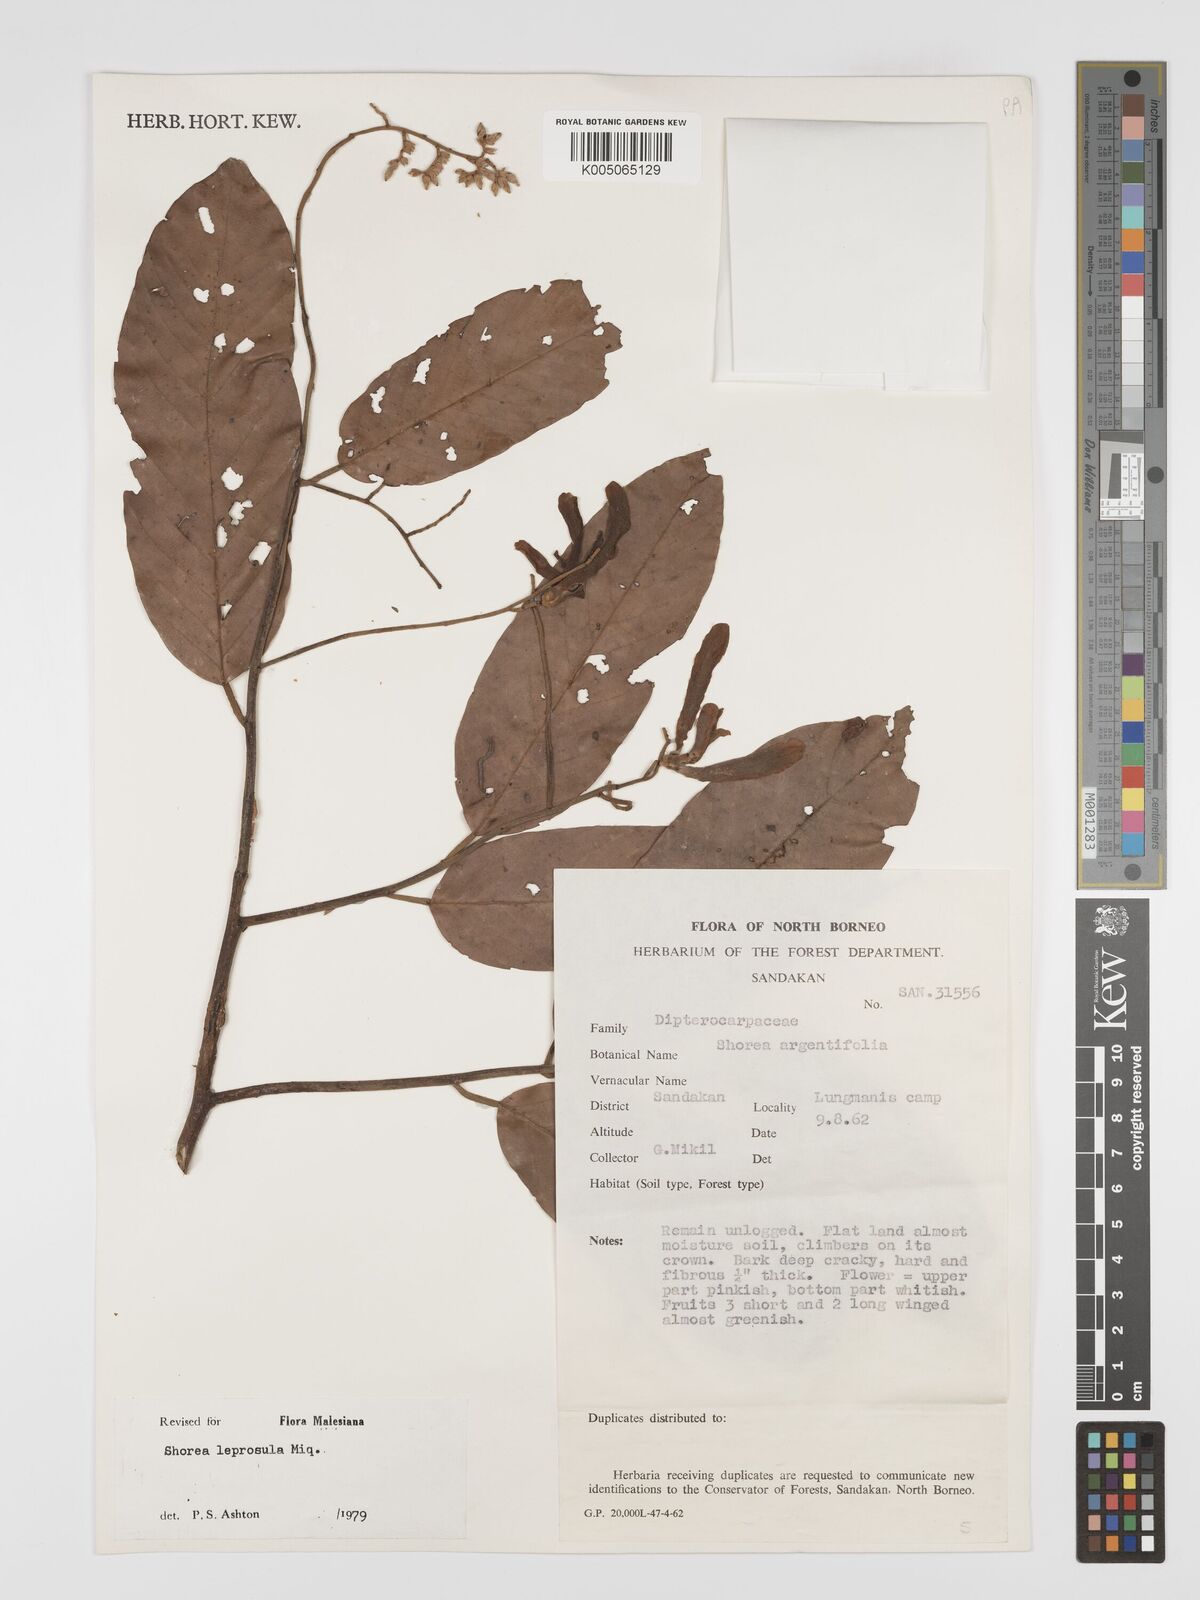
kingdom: Plantae
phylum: Tracheophyta
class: Magnoliopsida
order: Malvales
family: Dipterocarpaceae
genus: Shorea
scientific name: Shorea leprosula
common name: Light red meranti
